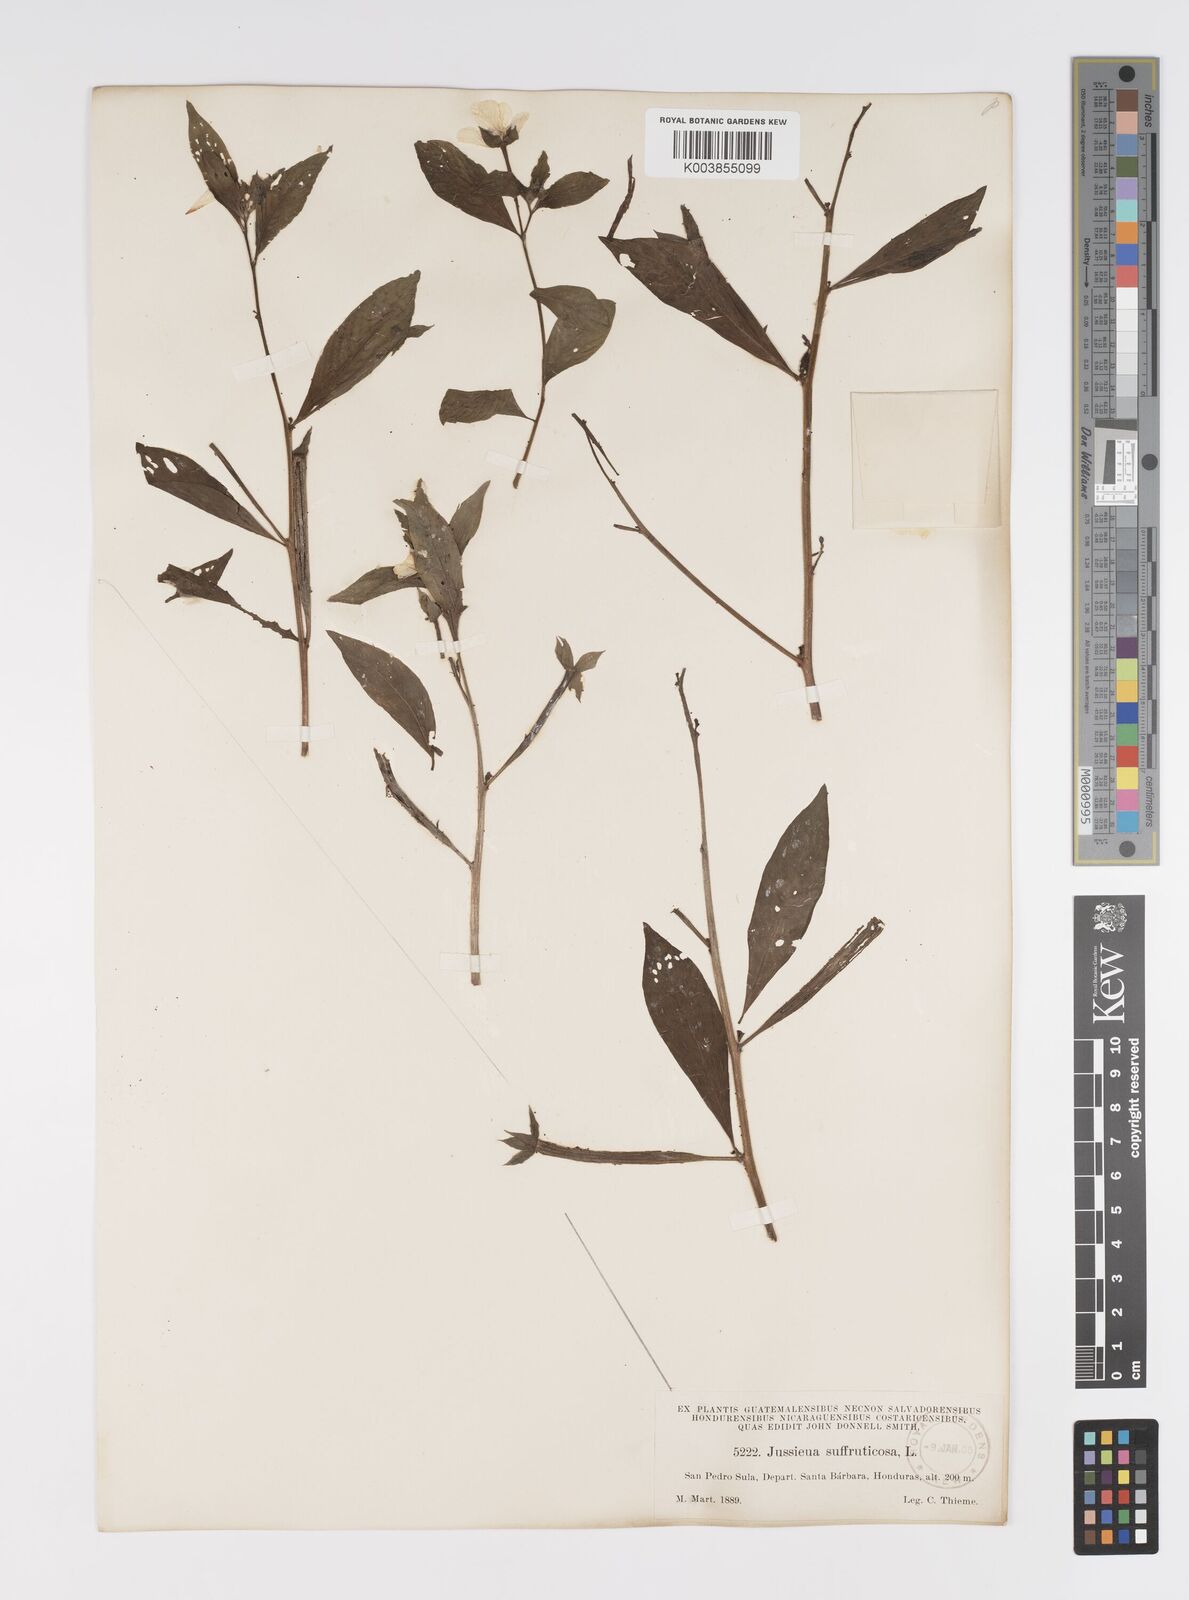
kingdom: Plantae
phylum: Tracheophyta
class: Magnoliopsida
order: Myrtales
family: Onagraceae
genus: Ludwigia
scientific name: Ludwigia octovalvis
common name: Water-primrose
